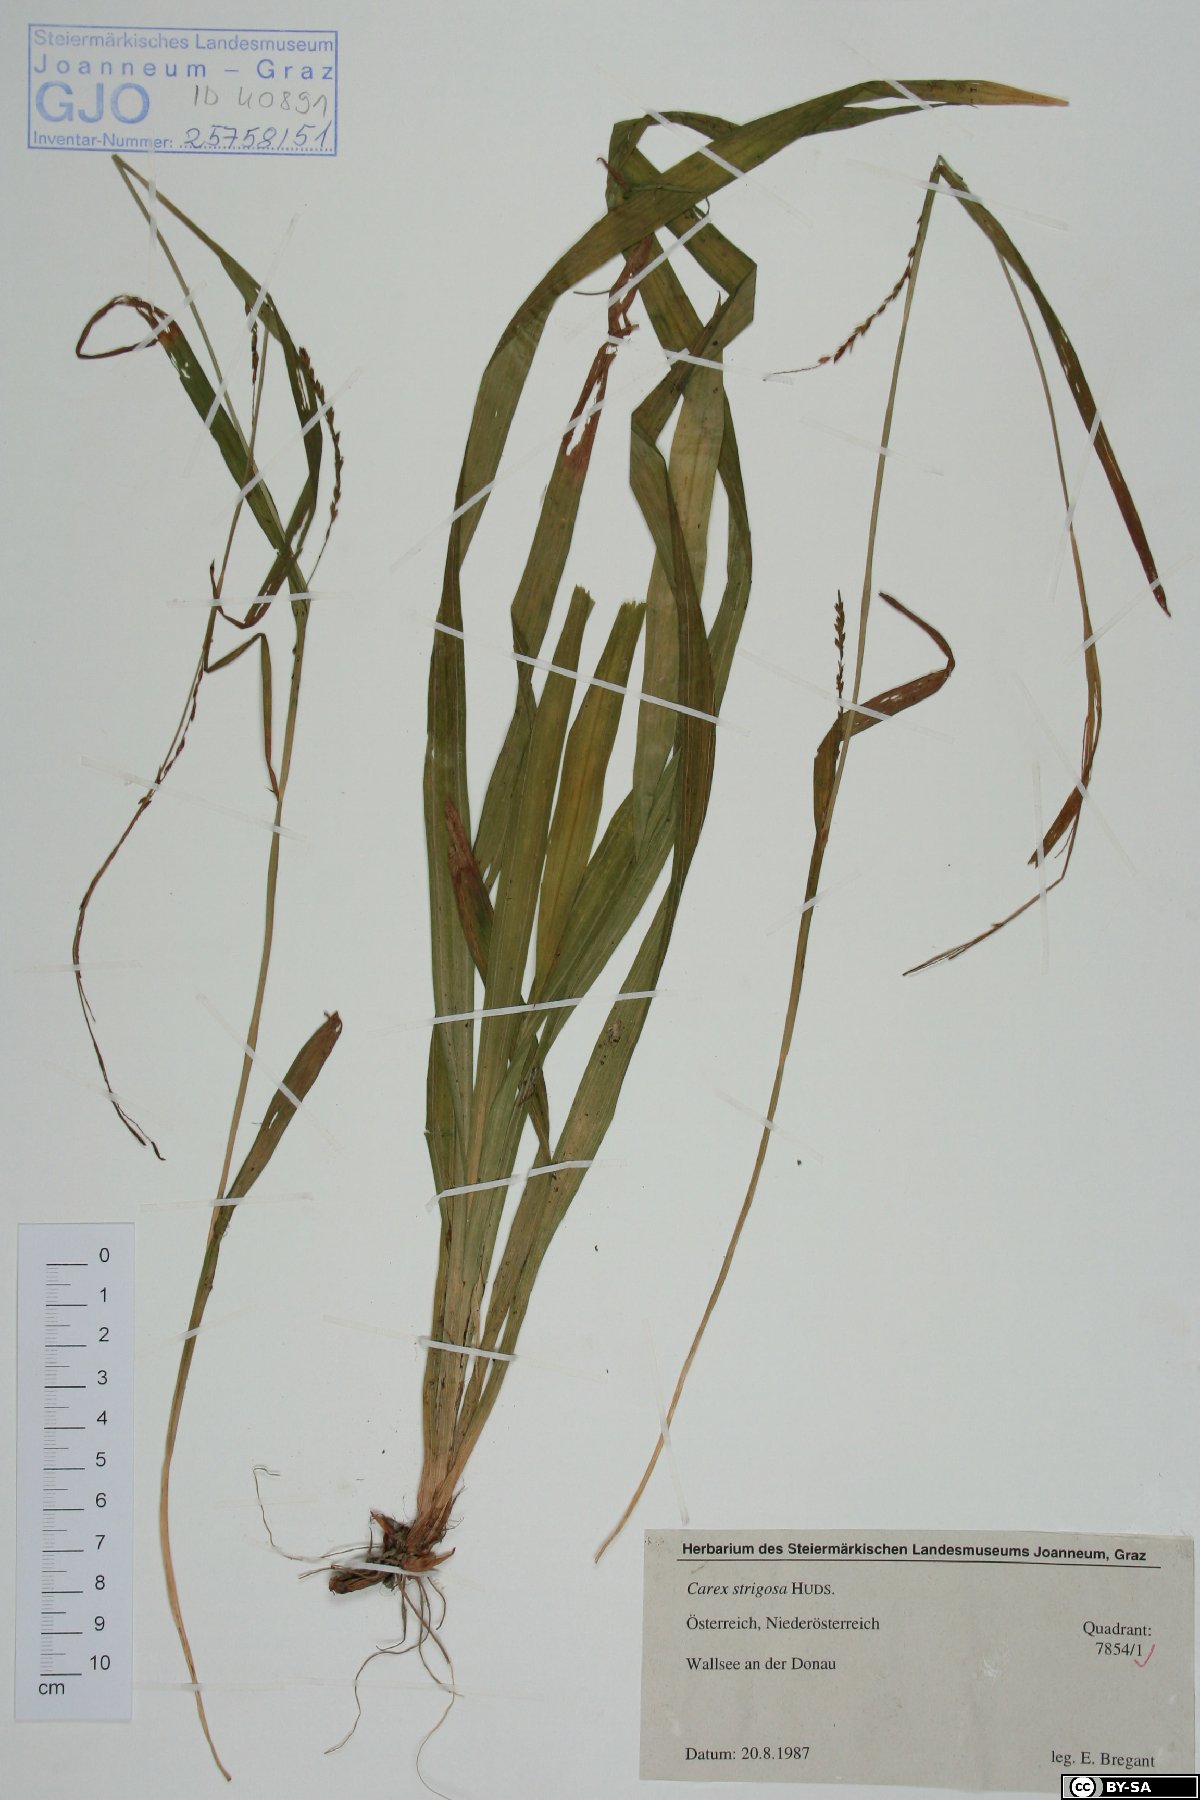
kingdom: Plantae
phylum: Tracheophyta
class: Liliopsida
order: Poales
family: Cyperaceae
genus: Carex
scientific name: Carex strigosa
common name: Thin-spiked wood-sedge
